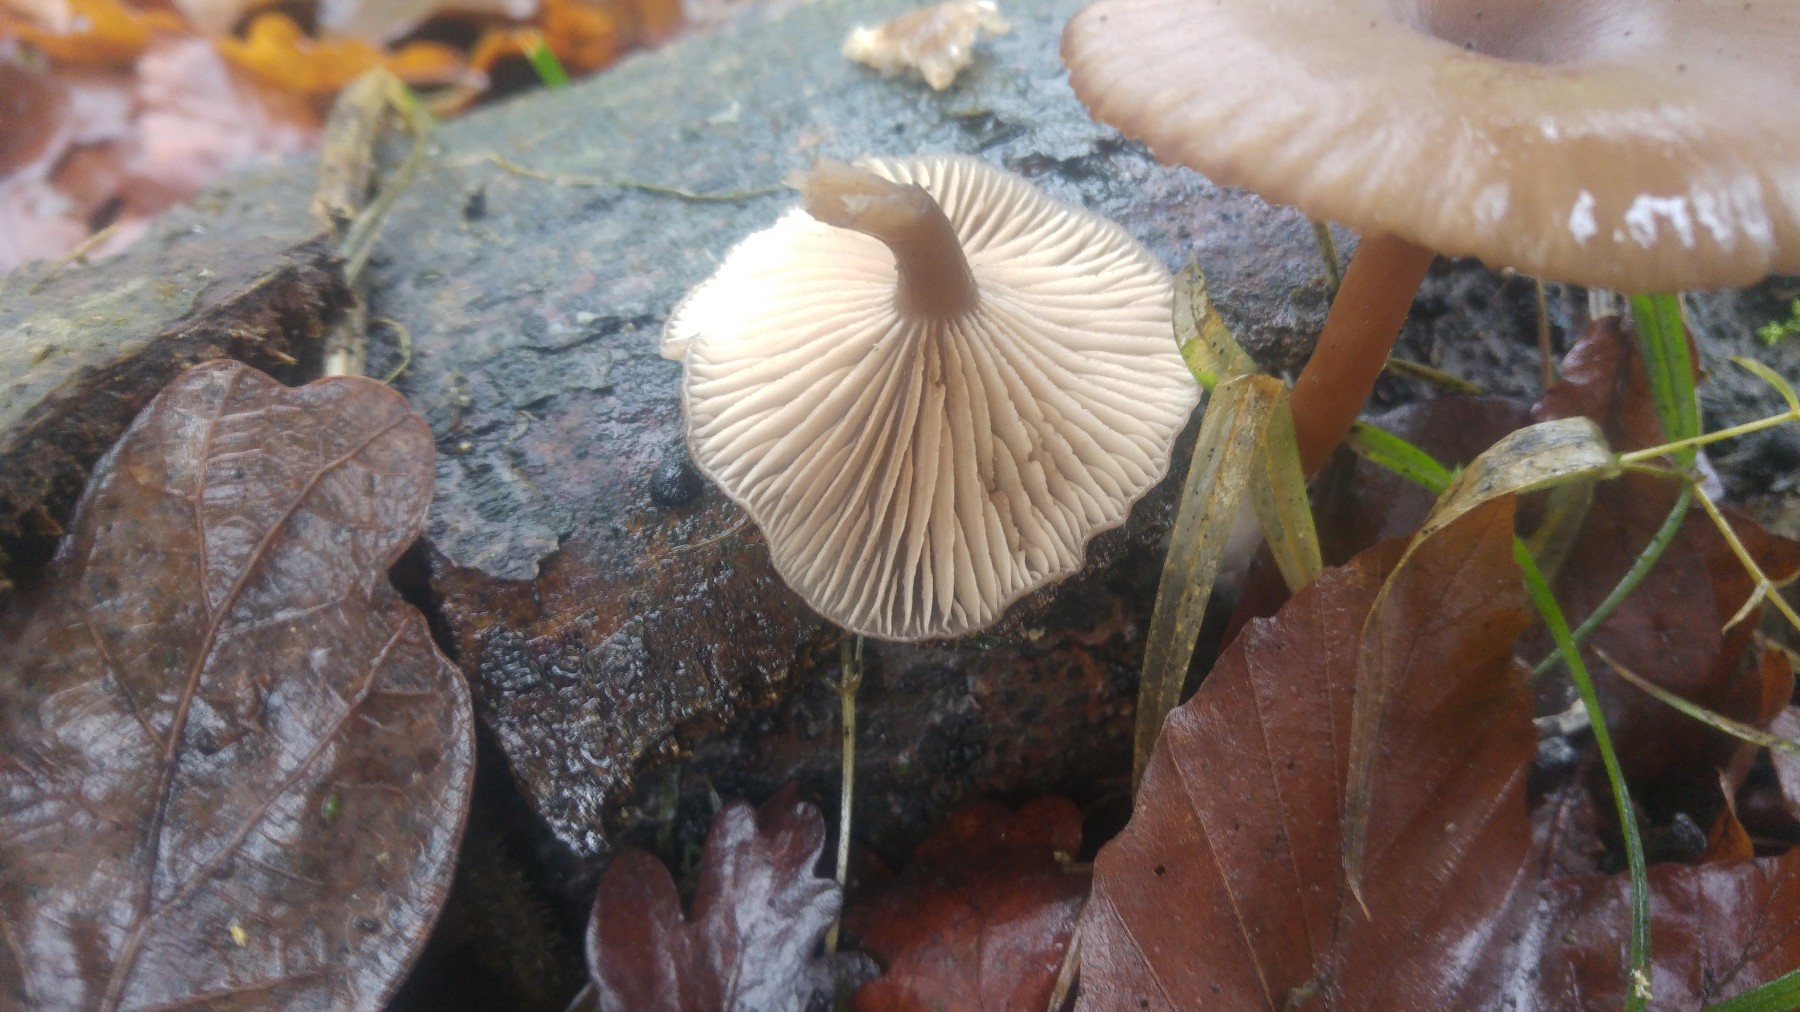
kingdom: Fungi
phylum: Basidiomycota
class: Agaricomycetes
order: Agaricales
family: Pseudoclitocybaceae
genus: Pseudoclitocybe
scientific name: Pseudoclitocybe cyathiformis
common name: almindelig bægertragthat
